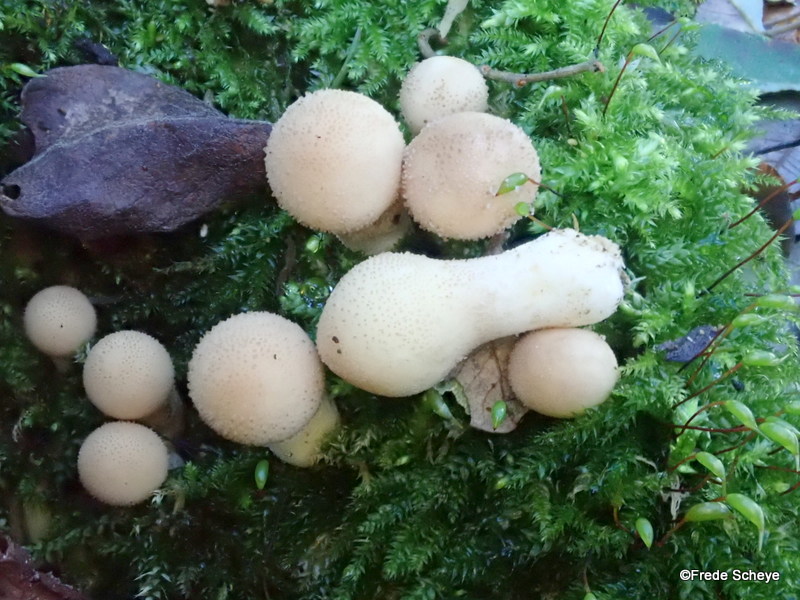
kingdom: Fungi
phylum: Basidiomycota
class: Agaricomycetes
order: Agaricales
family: Lycoperdaceae
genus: Apioperdon
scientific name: Apioperdon pyriforme
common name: pære-støvbold
